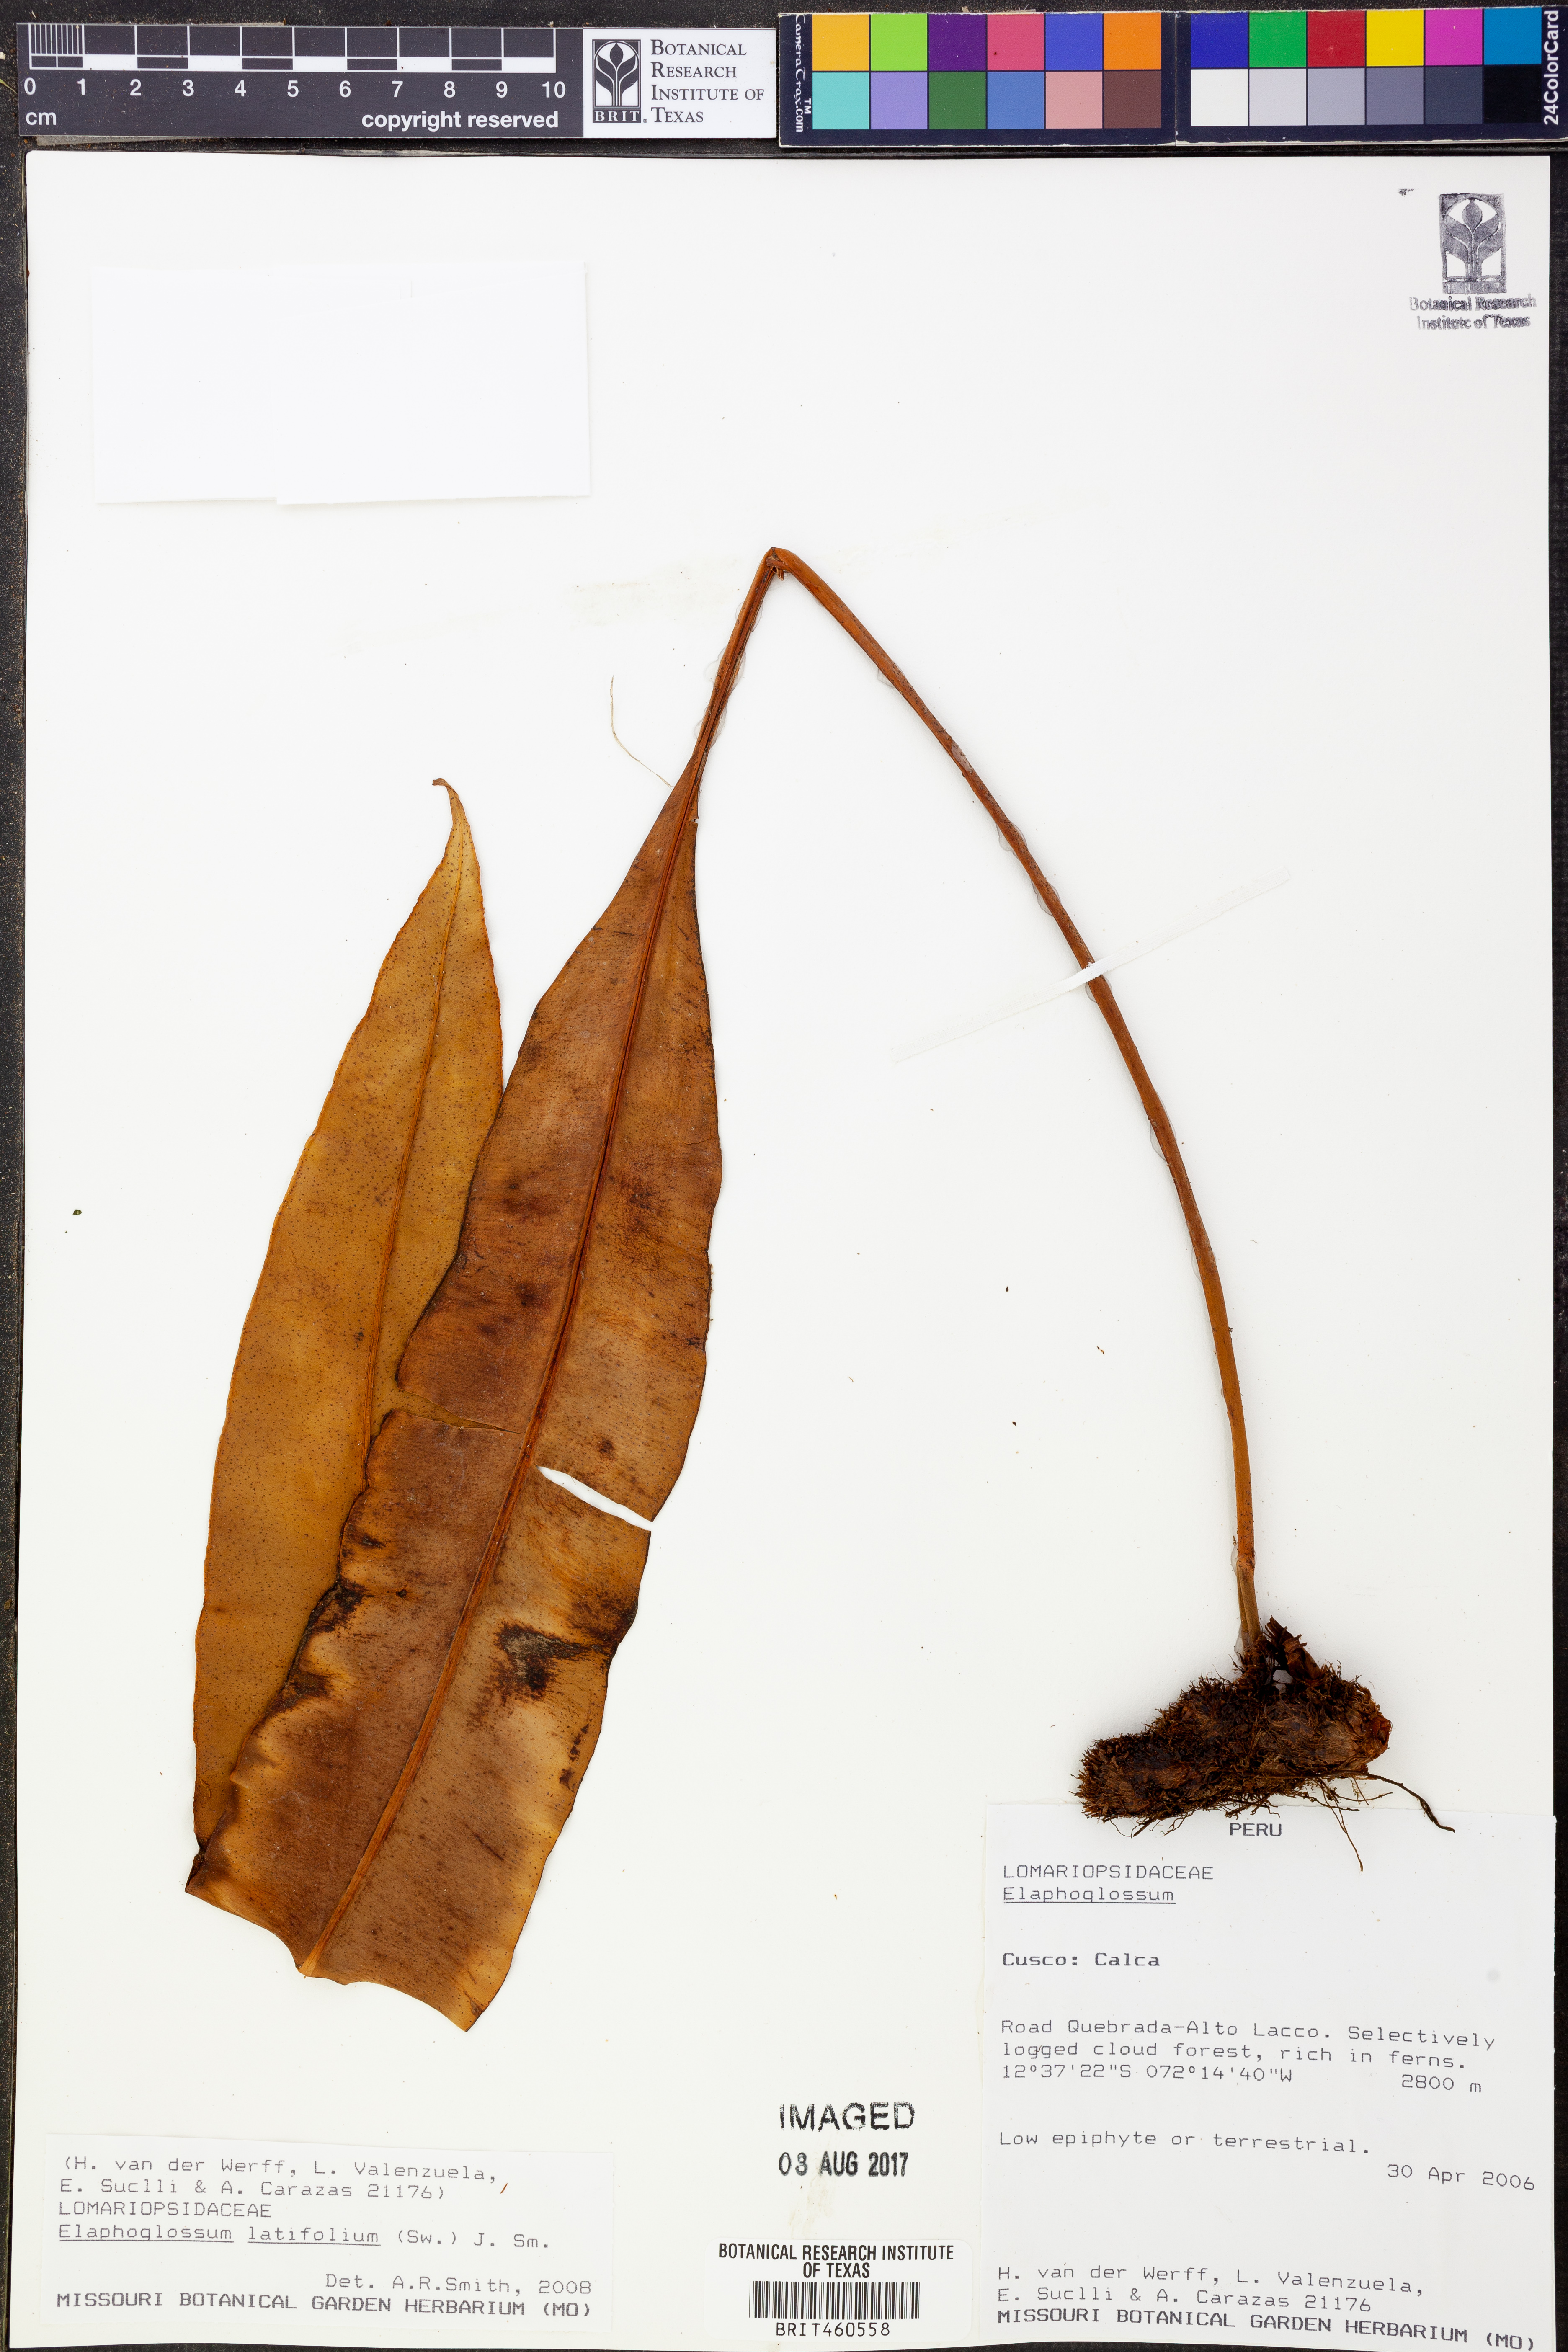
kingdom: Plantae
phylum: Tracheophyta
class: Polypodiopsida
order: Polypodiales
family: Dryopteridaceae
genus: Elaphoglossum
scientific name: Elaphoglossum latifolium
